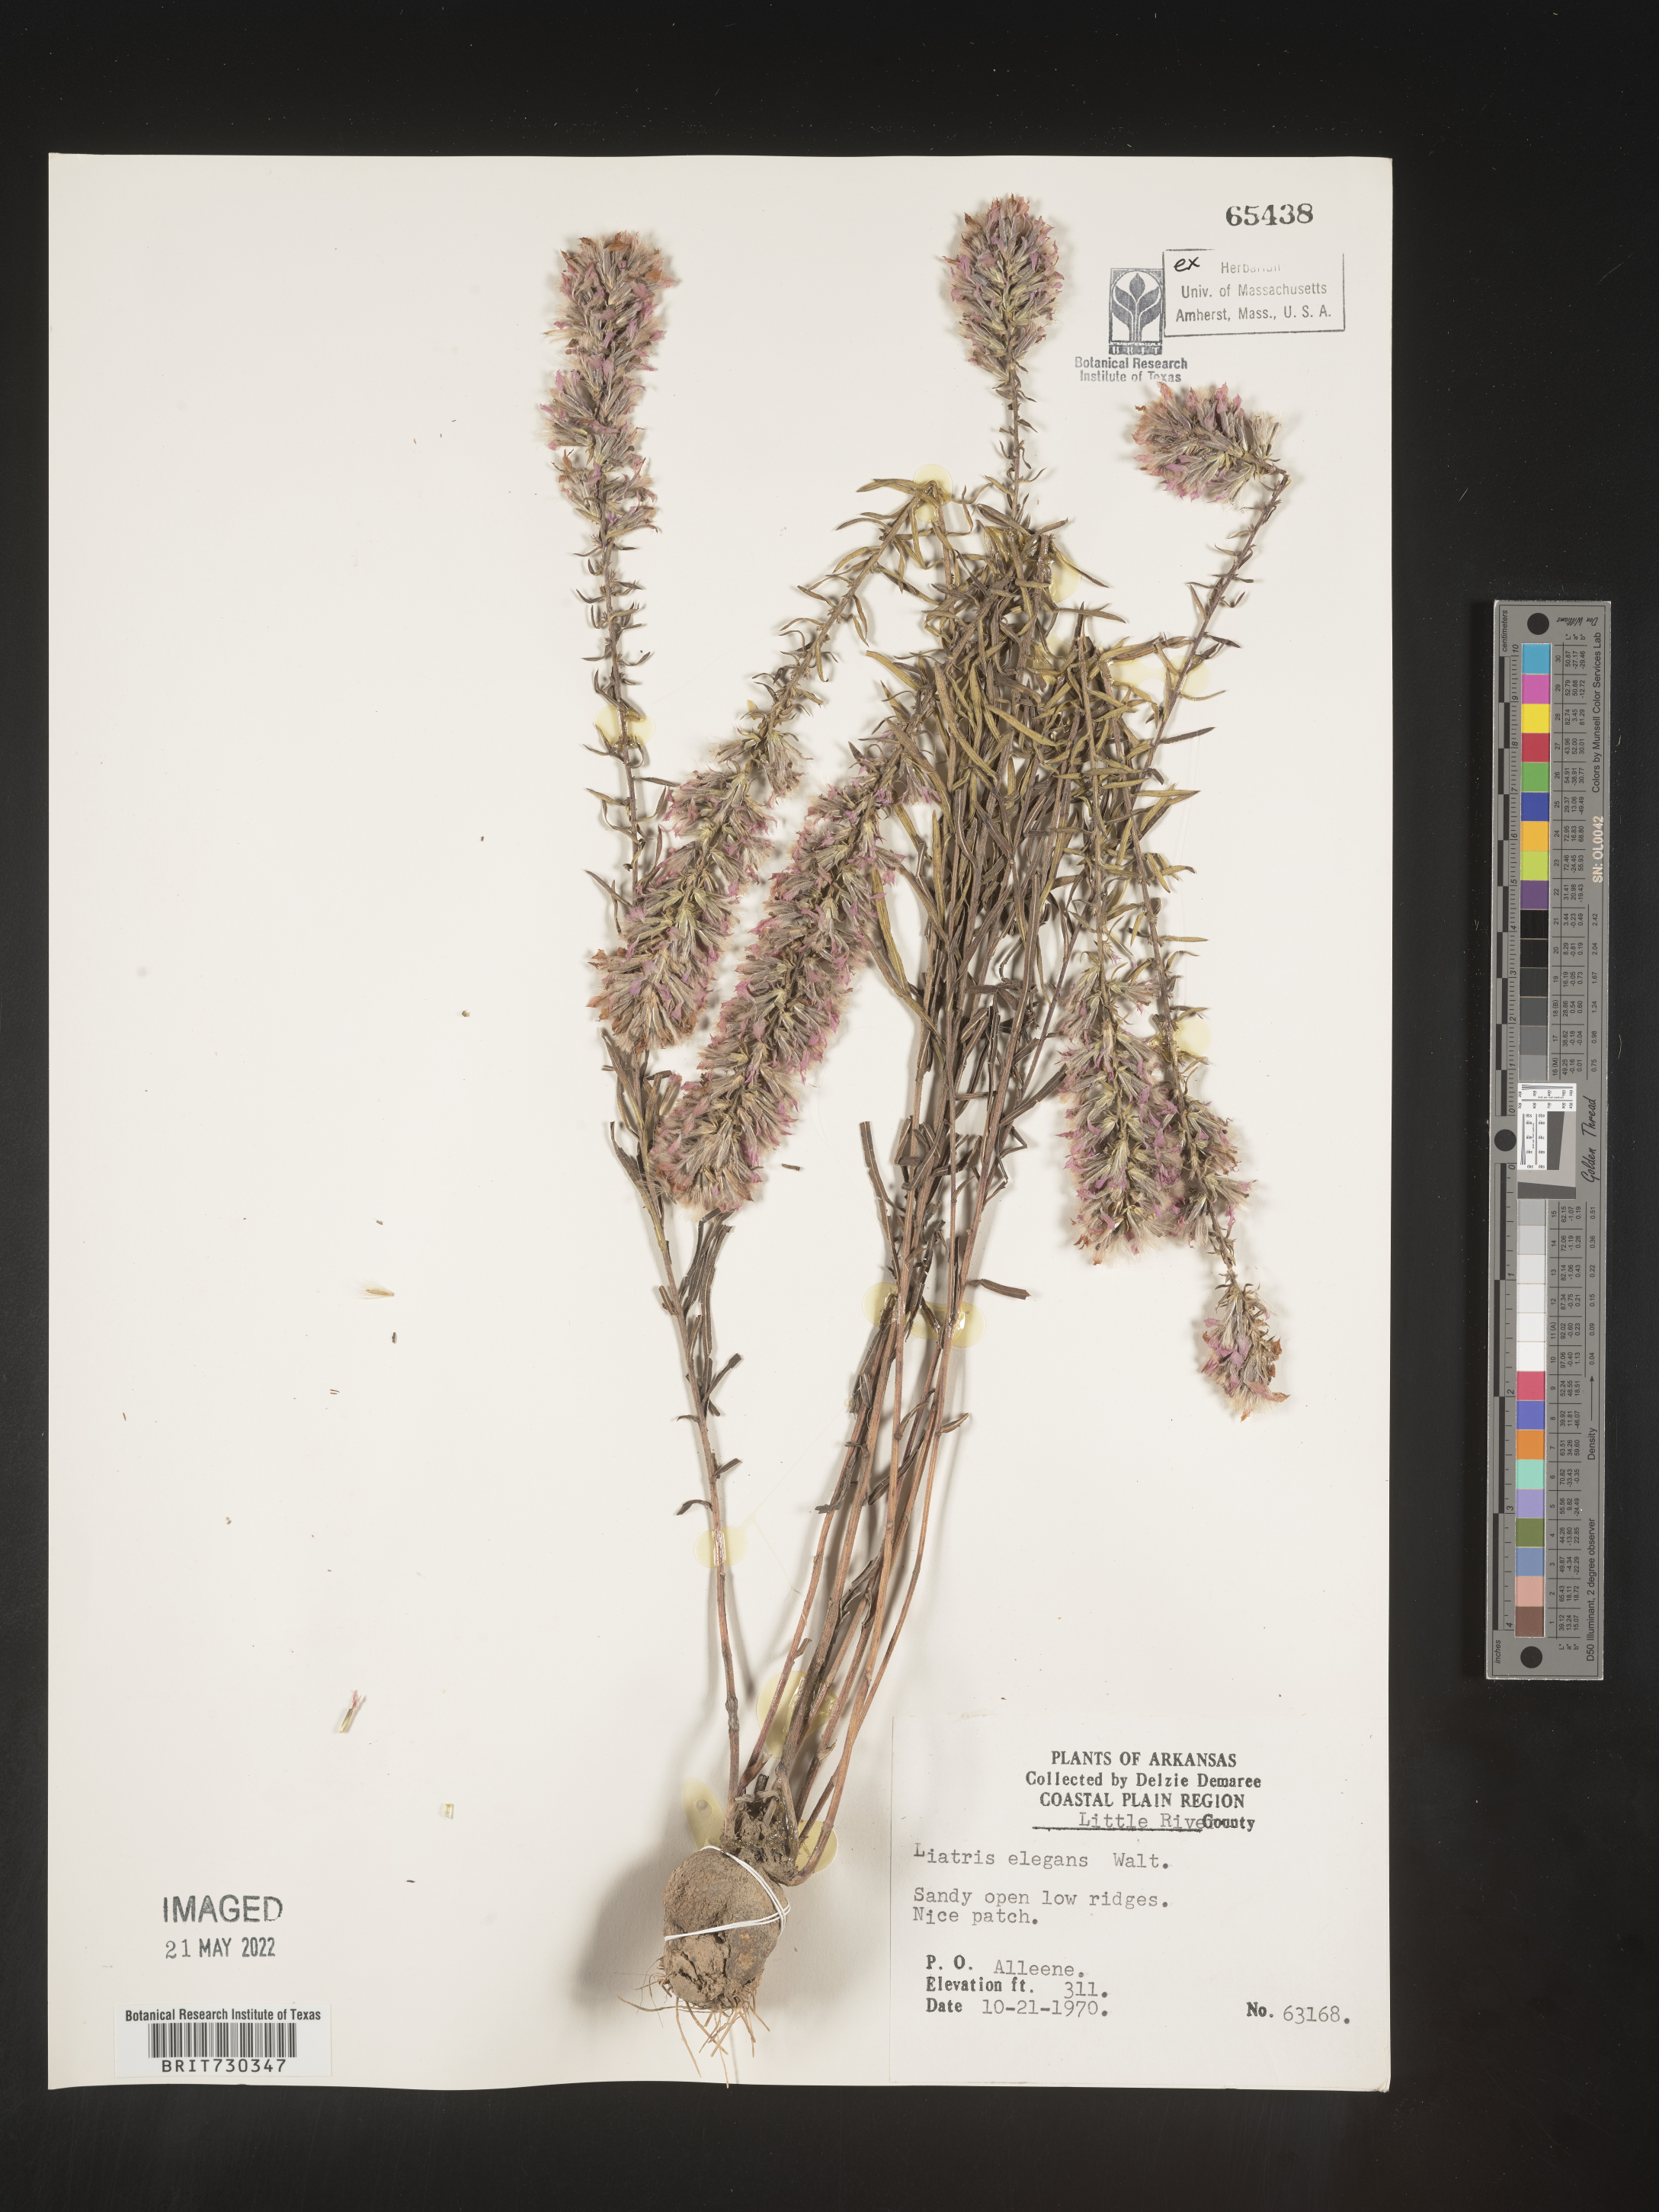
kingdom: Plantae
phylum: Tracheophyta
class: Magnoliopsida
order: Asterales
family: Asteraceae
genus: Liatris
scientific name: Liatris elegans
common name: Pinkscale gayfeather
